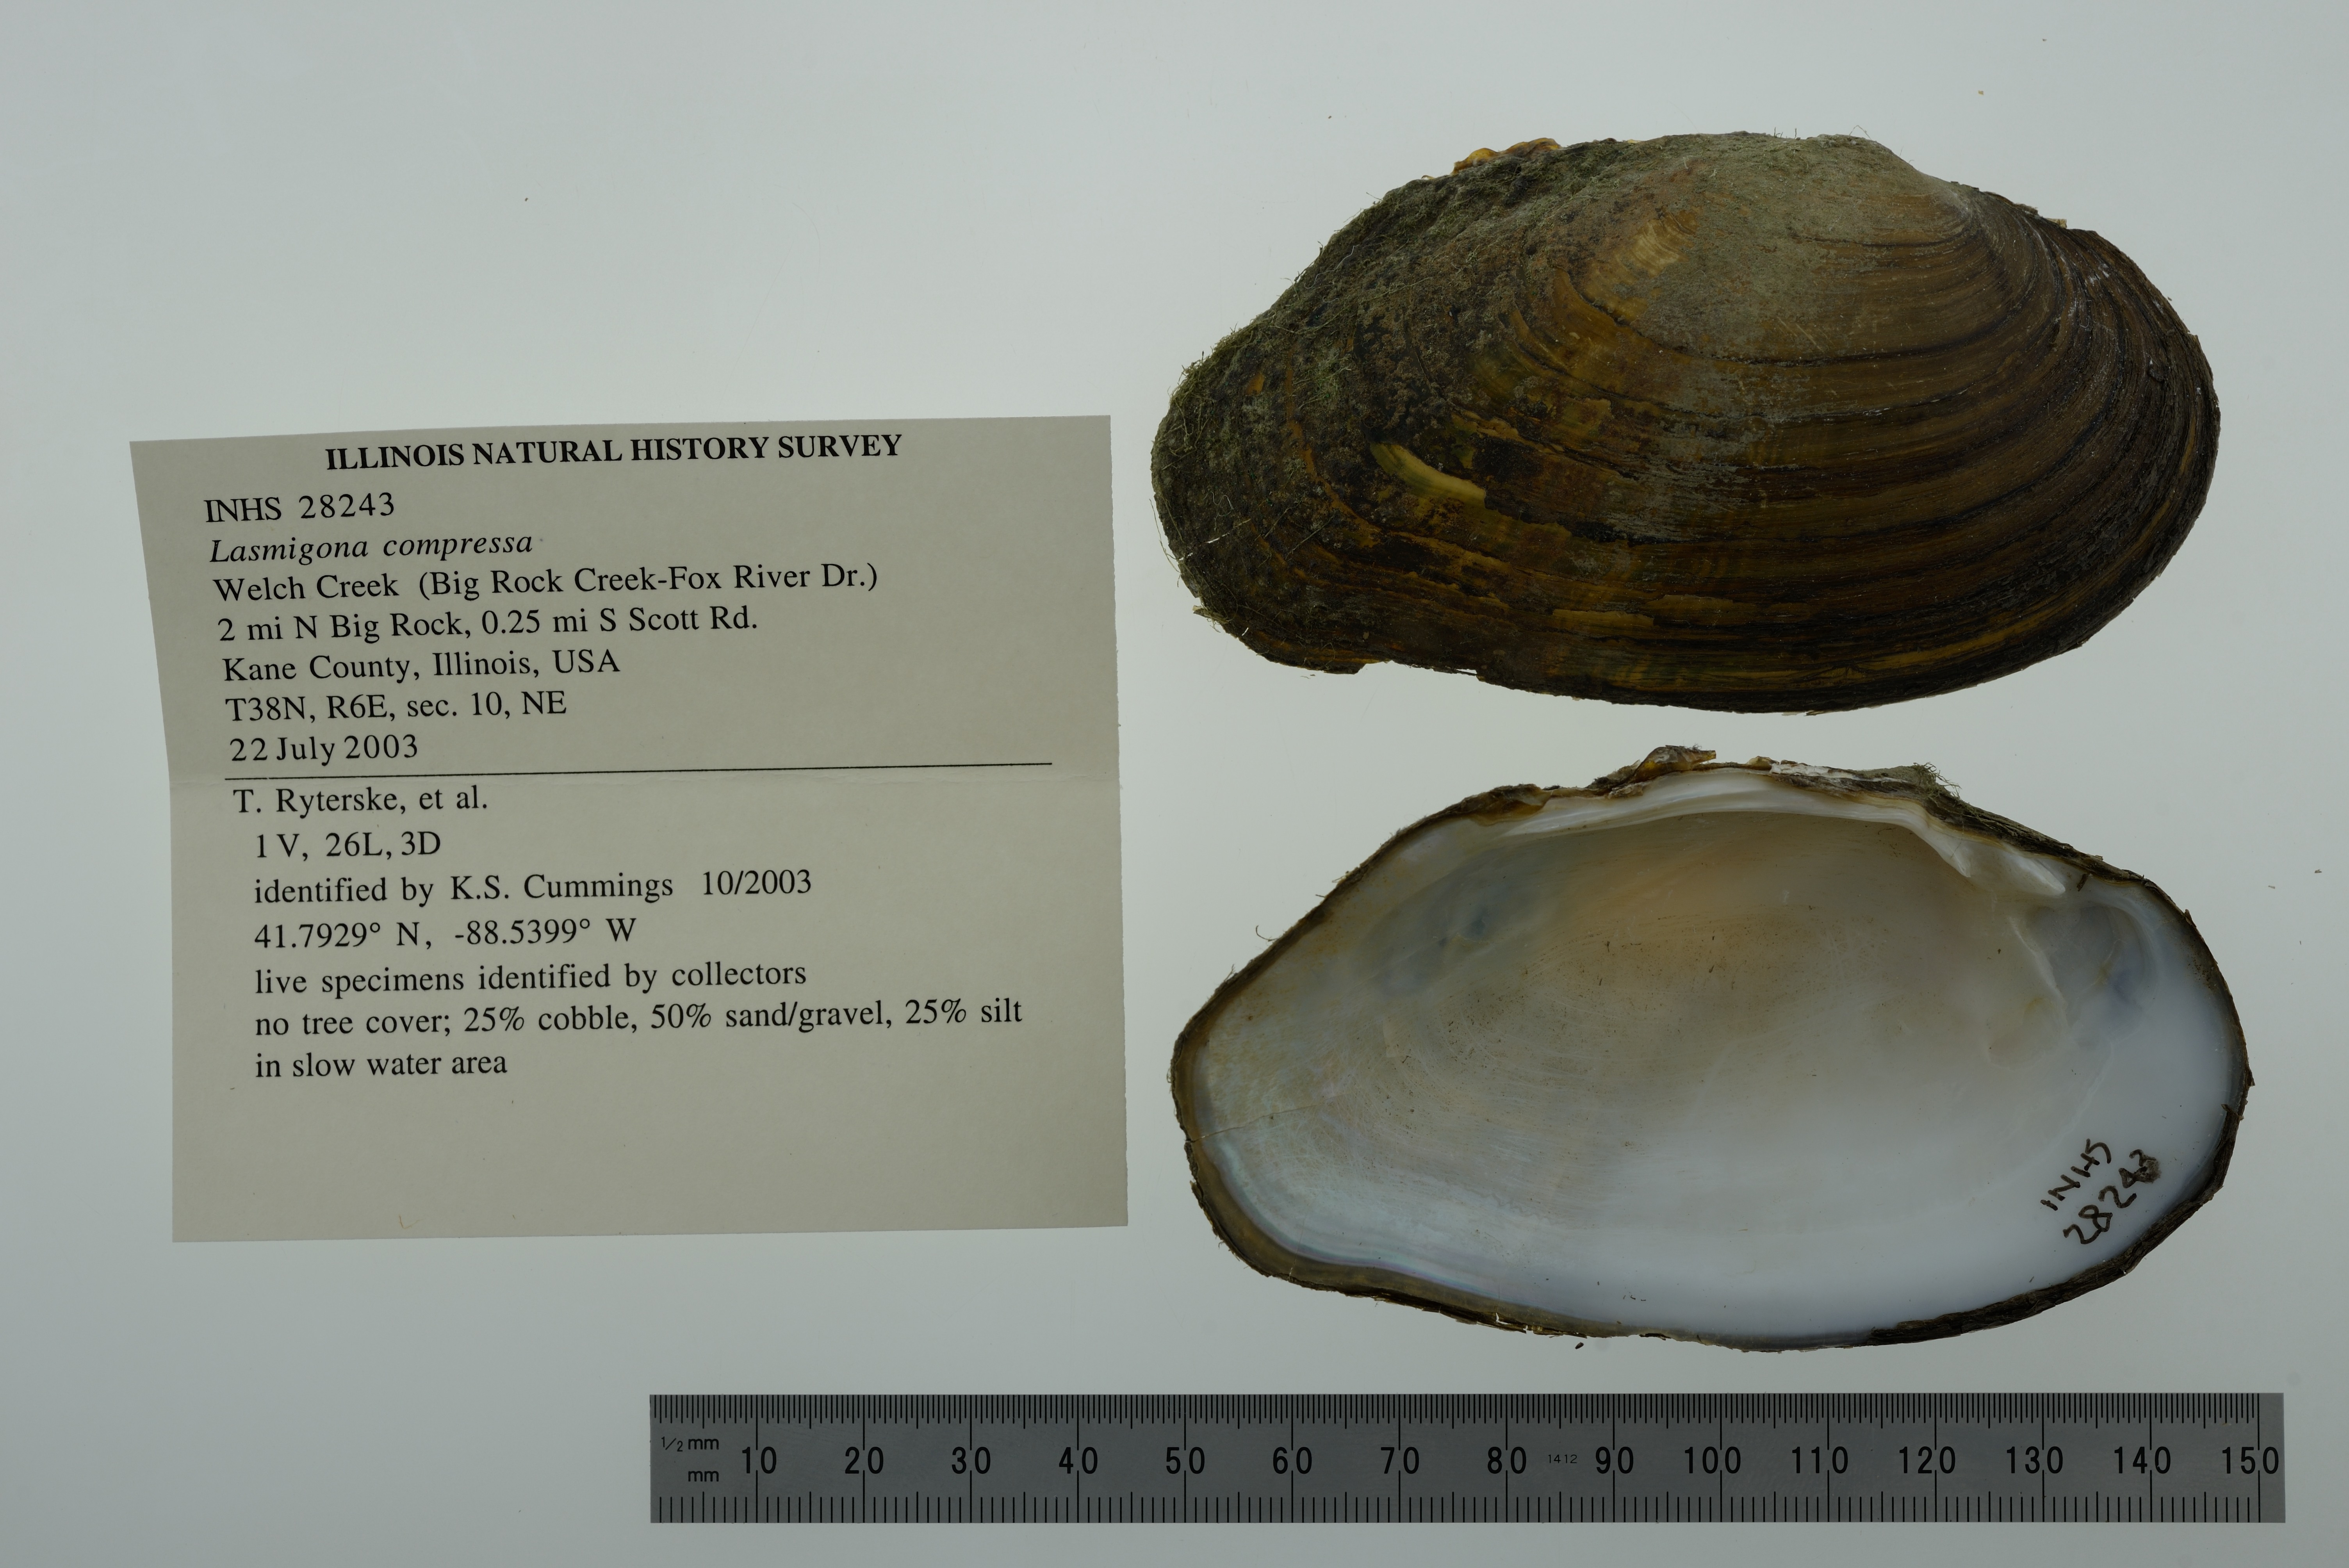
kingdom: Animalia
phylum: Mollusca
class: Bivalvia
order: Unionida
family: Unionidae
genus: Lasmigona
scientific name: Lasmigona compressa
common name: Creek heelsplitter
